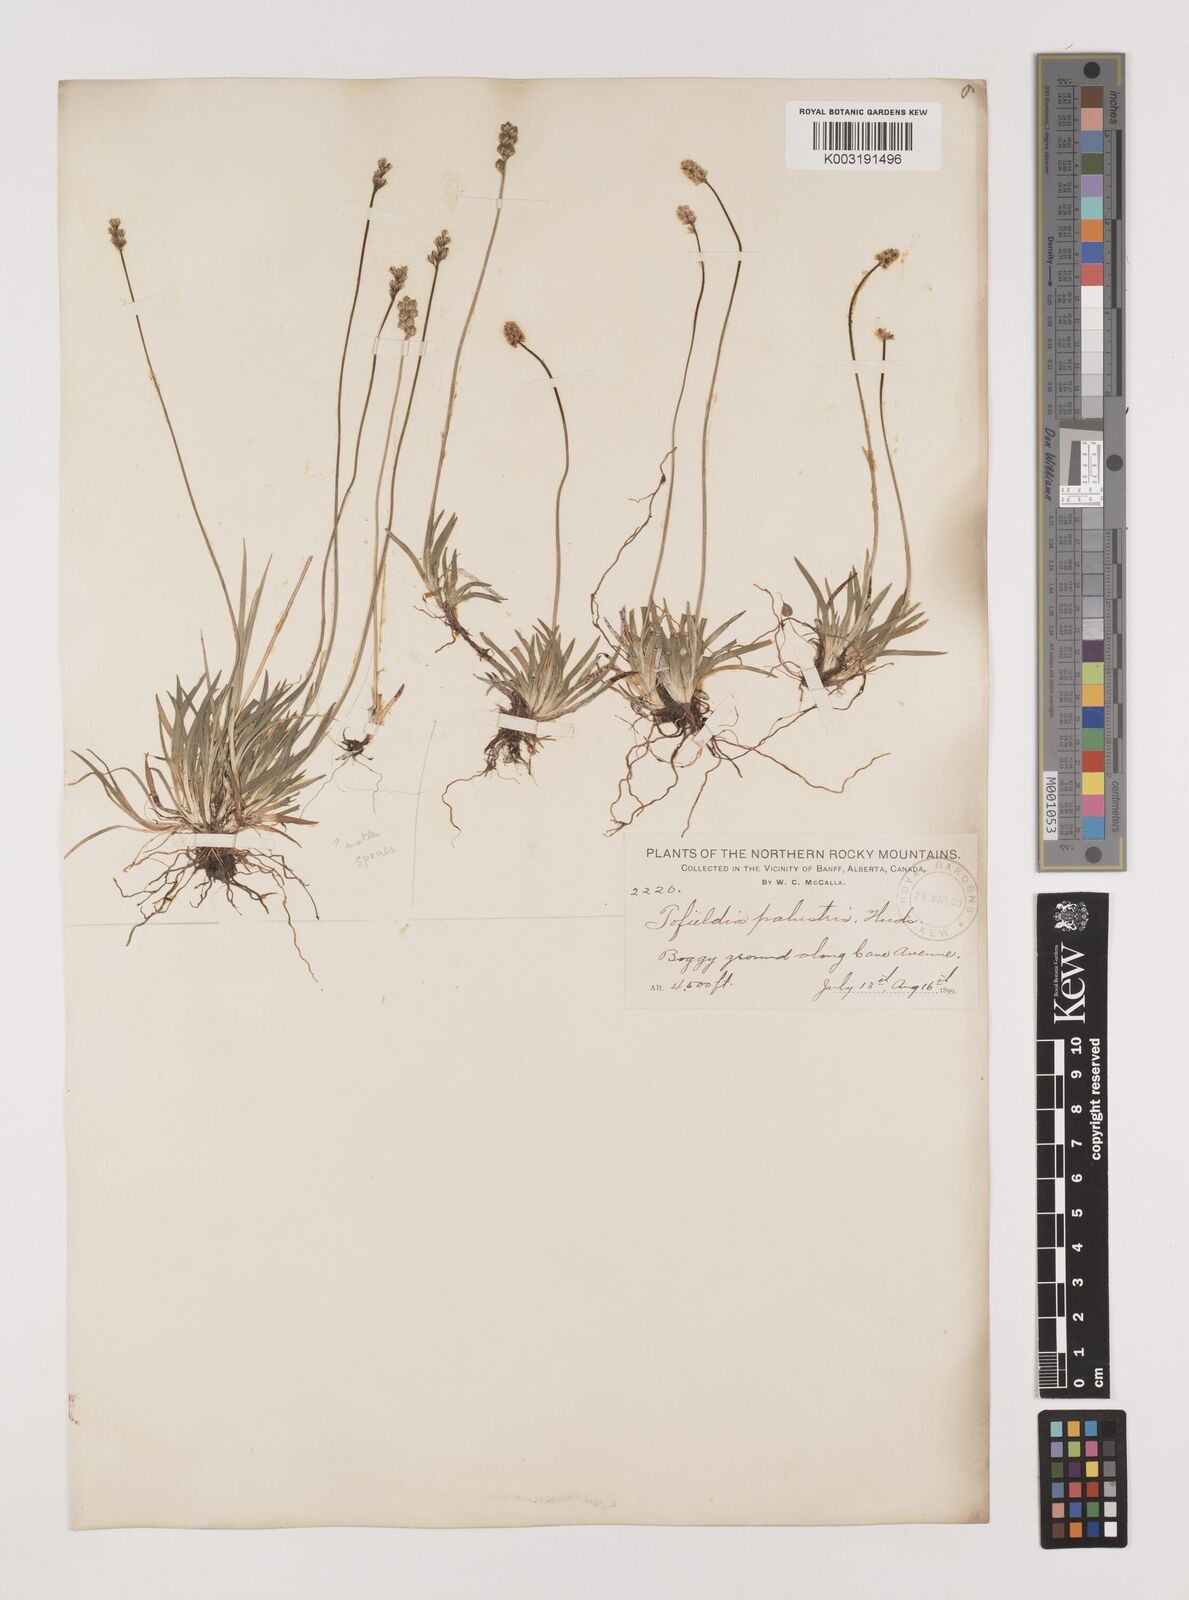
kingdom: Plantae
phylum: Tracheophyta
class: Liliopsida
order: Alismatales
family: Tofieldiaceae
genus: Tofieldia
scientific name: Tofieldia
